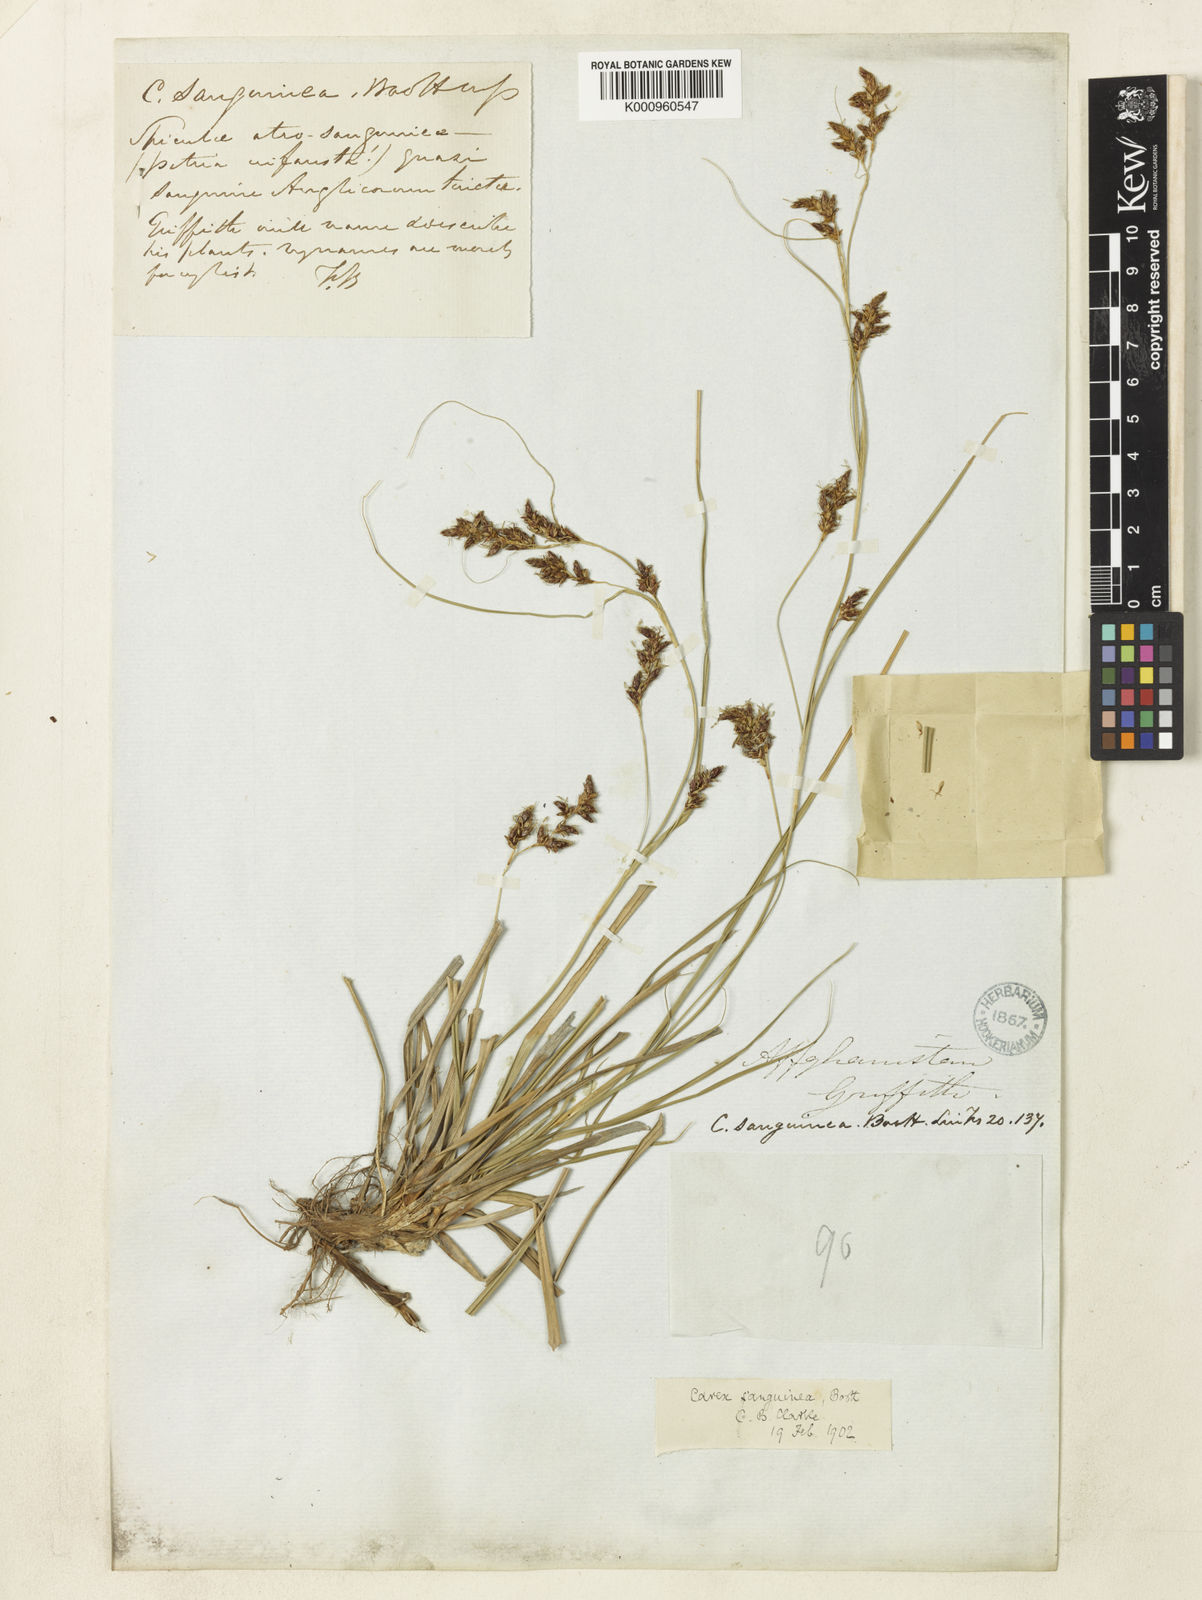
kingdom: Plantae
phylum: Tracheophyta
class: Liliopsida
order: Poales
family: Cyperaceae
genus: Carex
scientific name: Carex sanguinea
